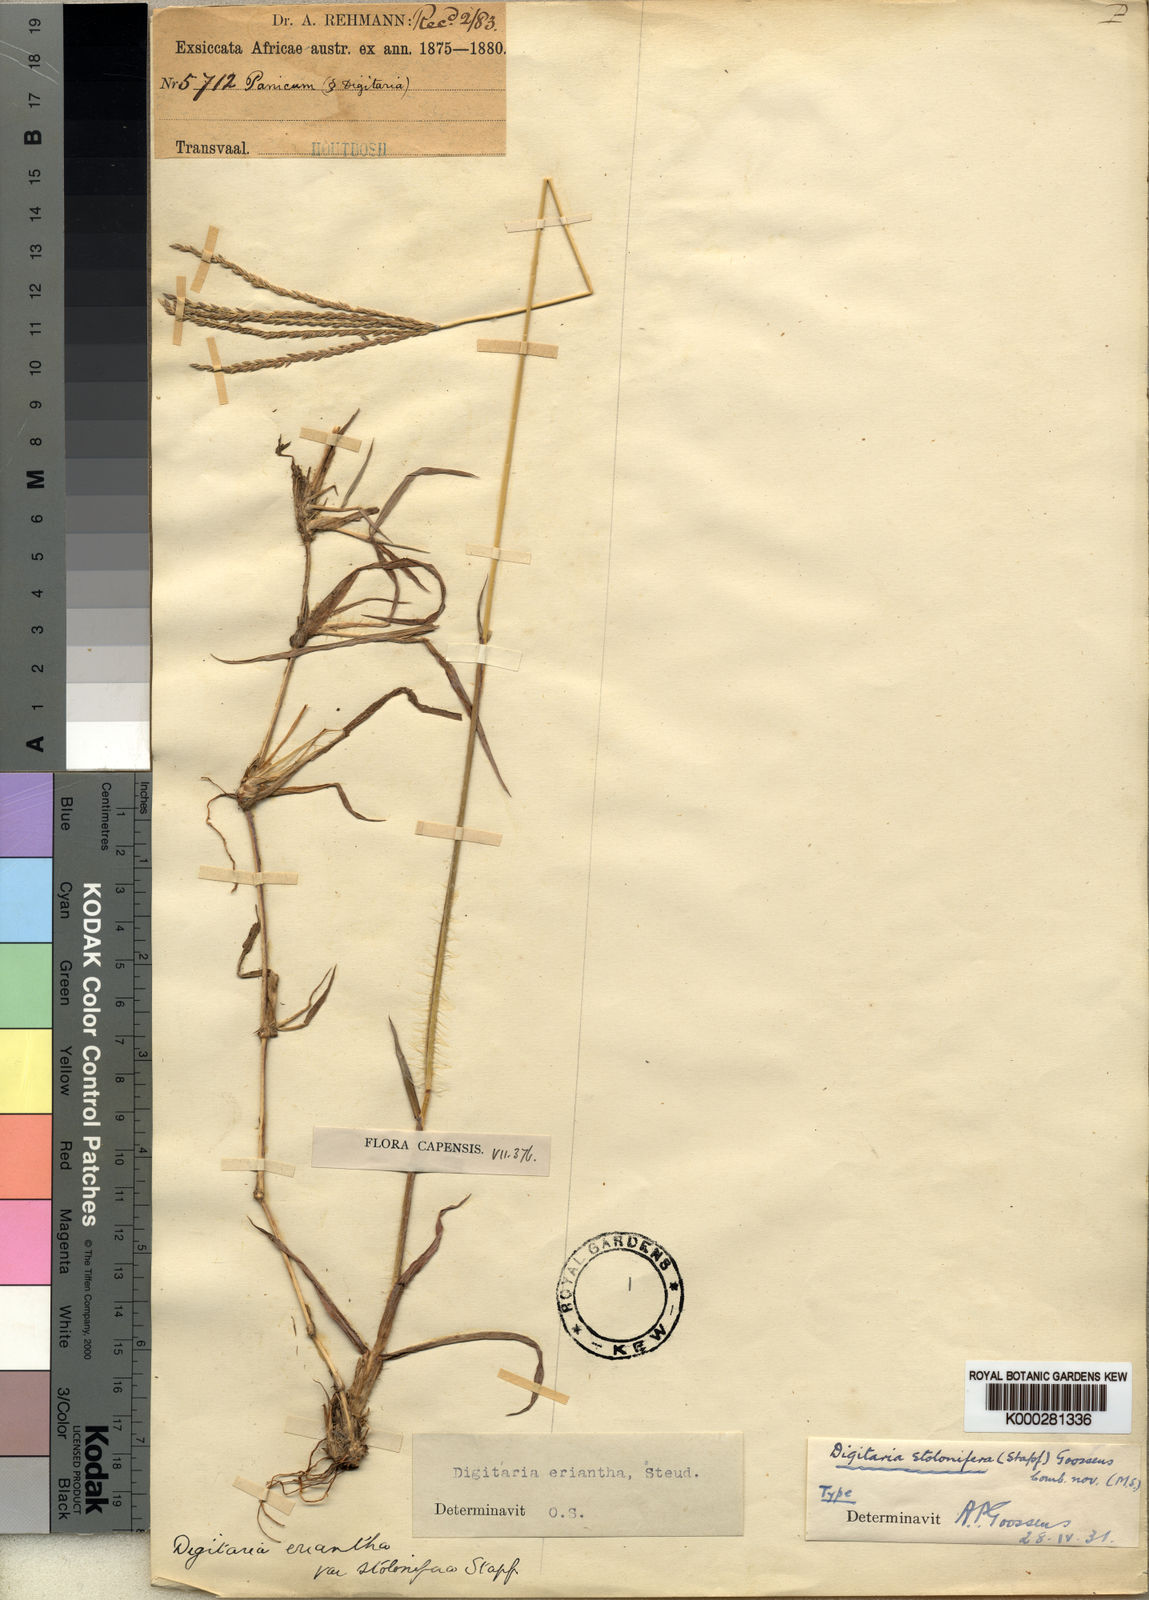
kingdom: Plantae
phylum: Tracheophyta
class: Liliopsida
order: Poales
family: Poaceae
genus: Digitaria
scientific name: Digitaria eriantha
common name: Digitgrass
